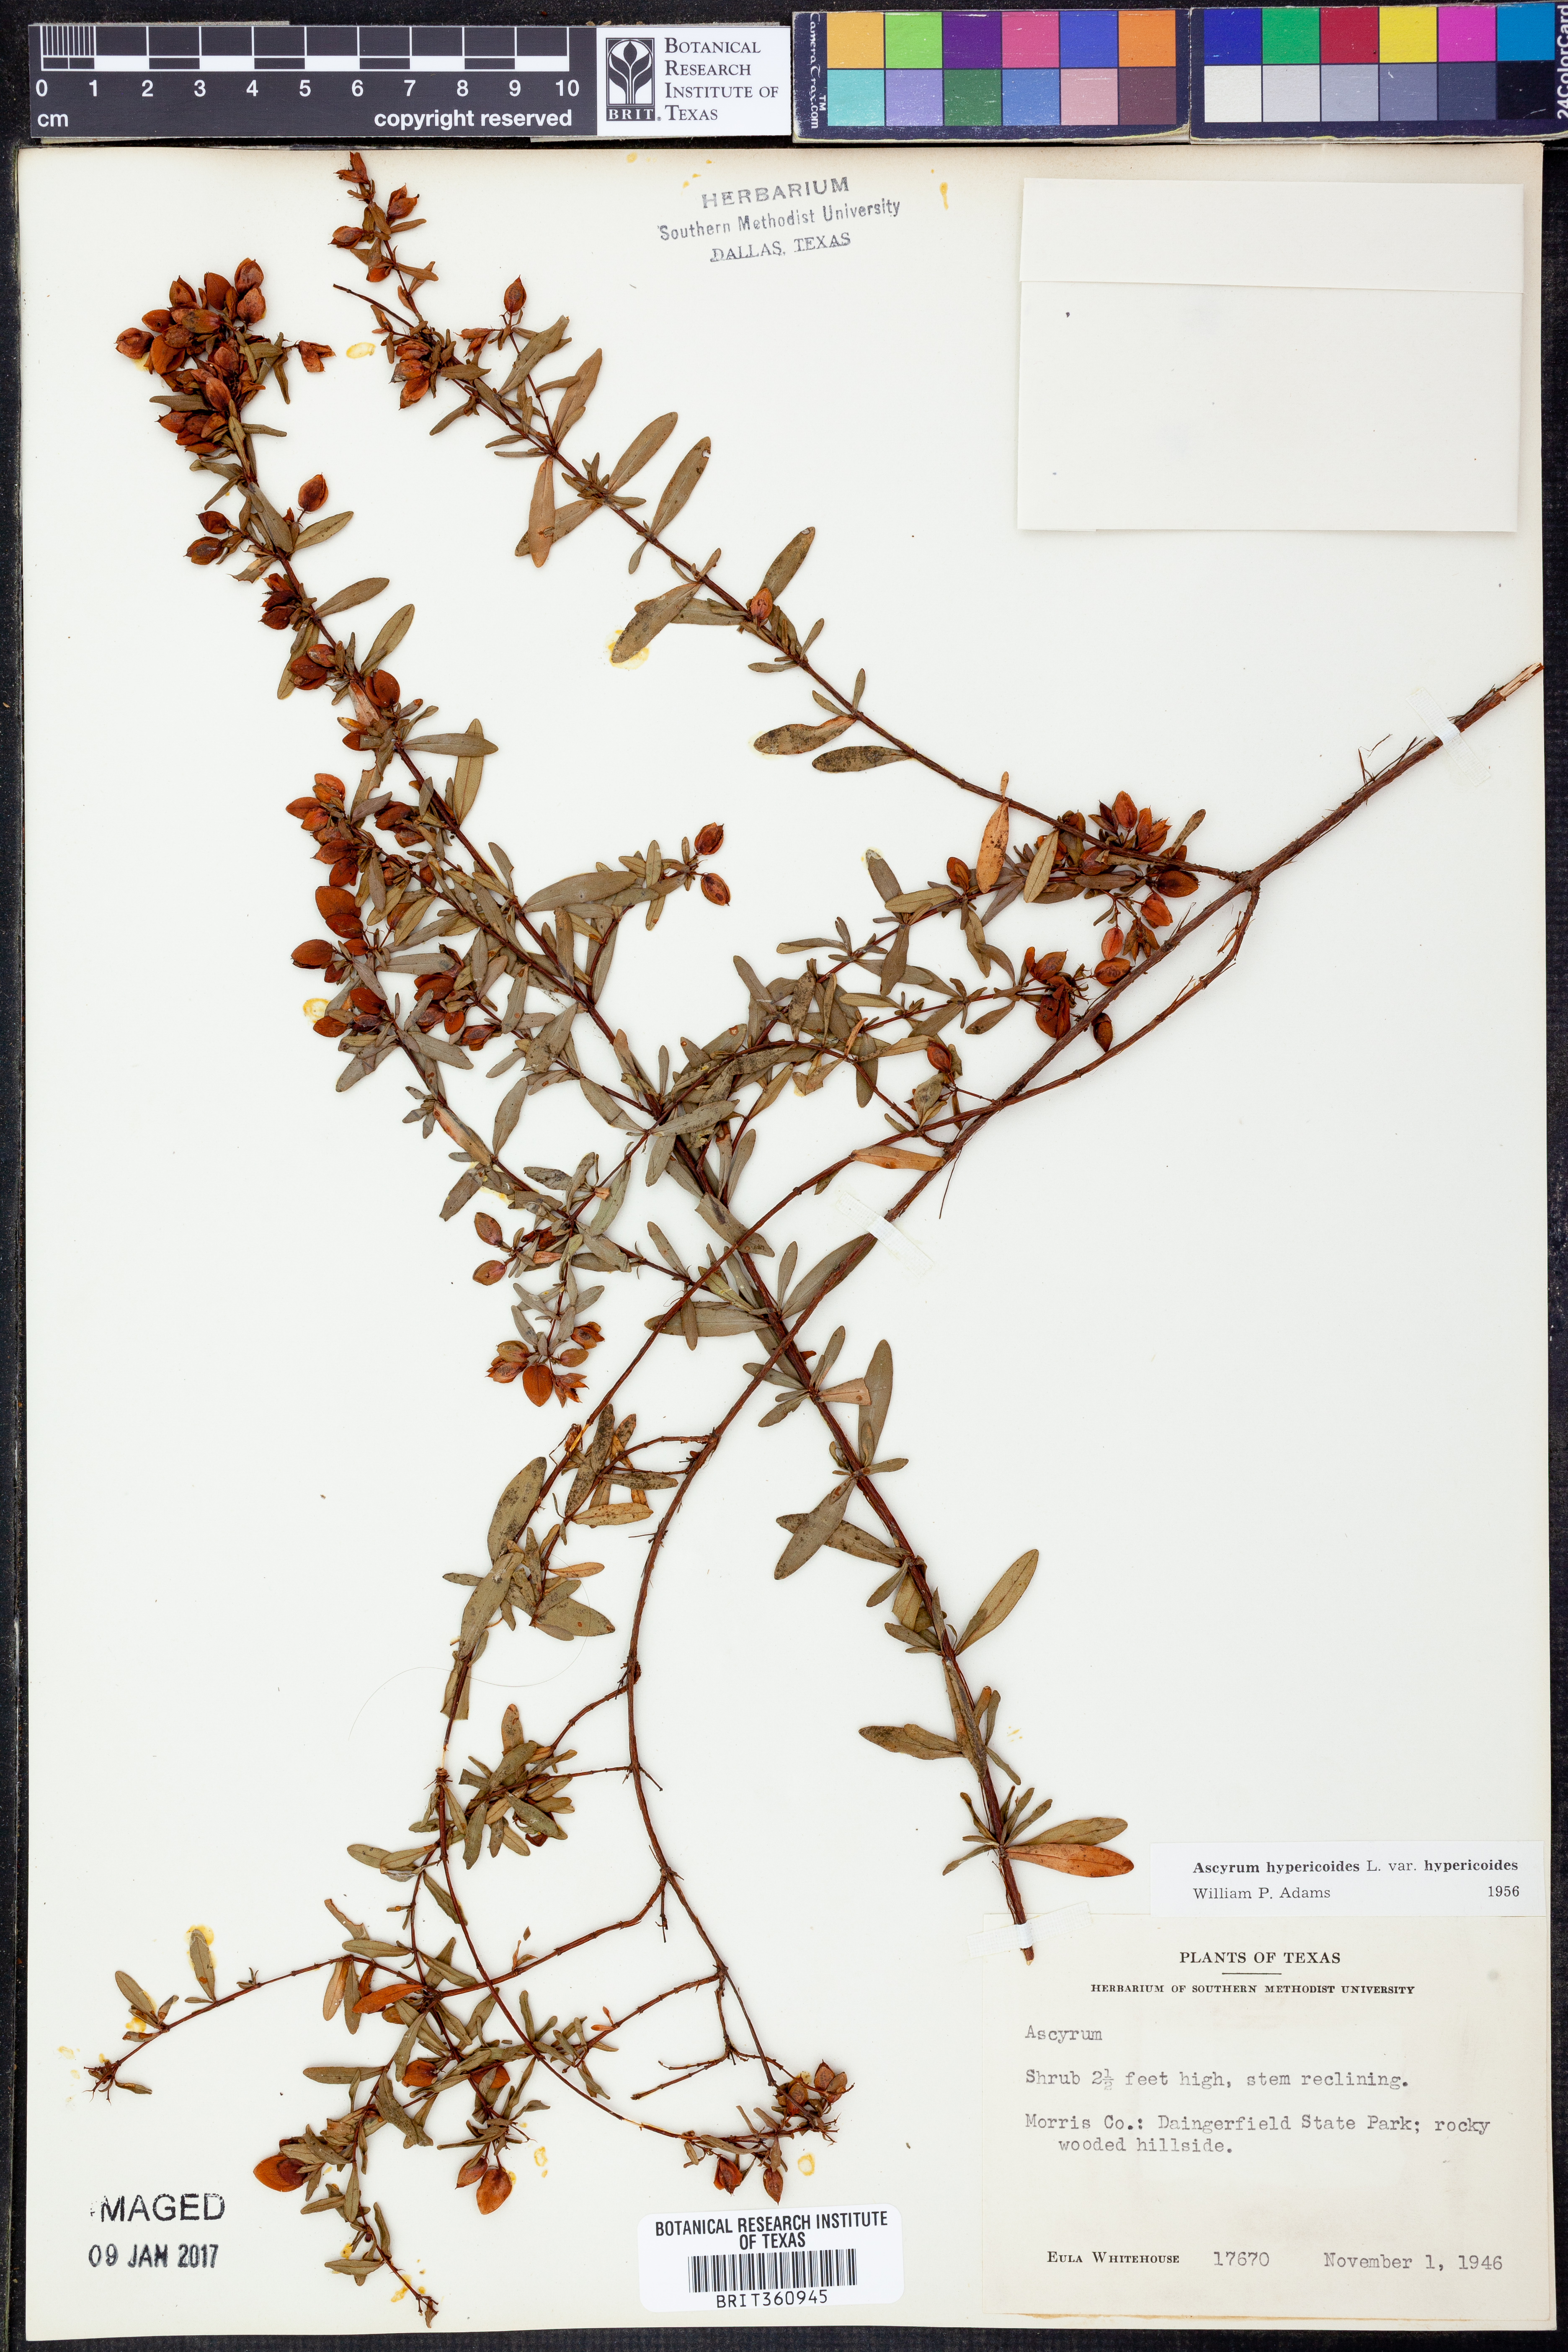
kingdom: Plantae
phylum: Tracheophyta
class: Magnoliopsida
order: Malpighiales
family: Hypericaceae
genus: Hypericum
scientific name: Hypericum hypericoides
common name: St. andrew's cross
